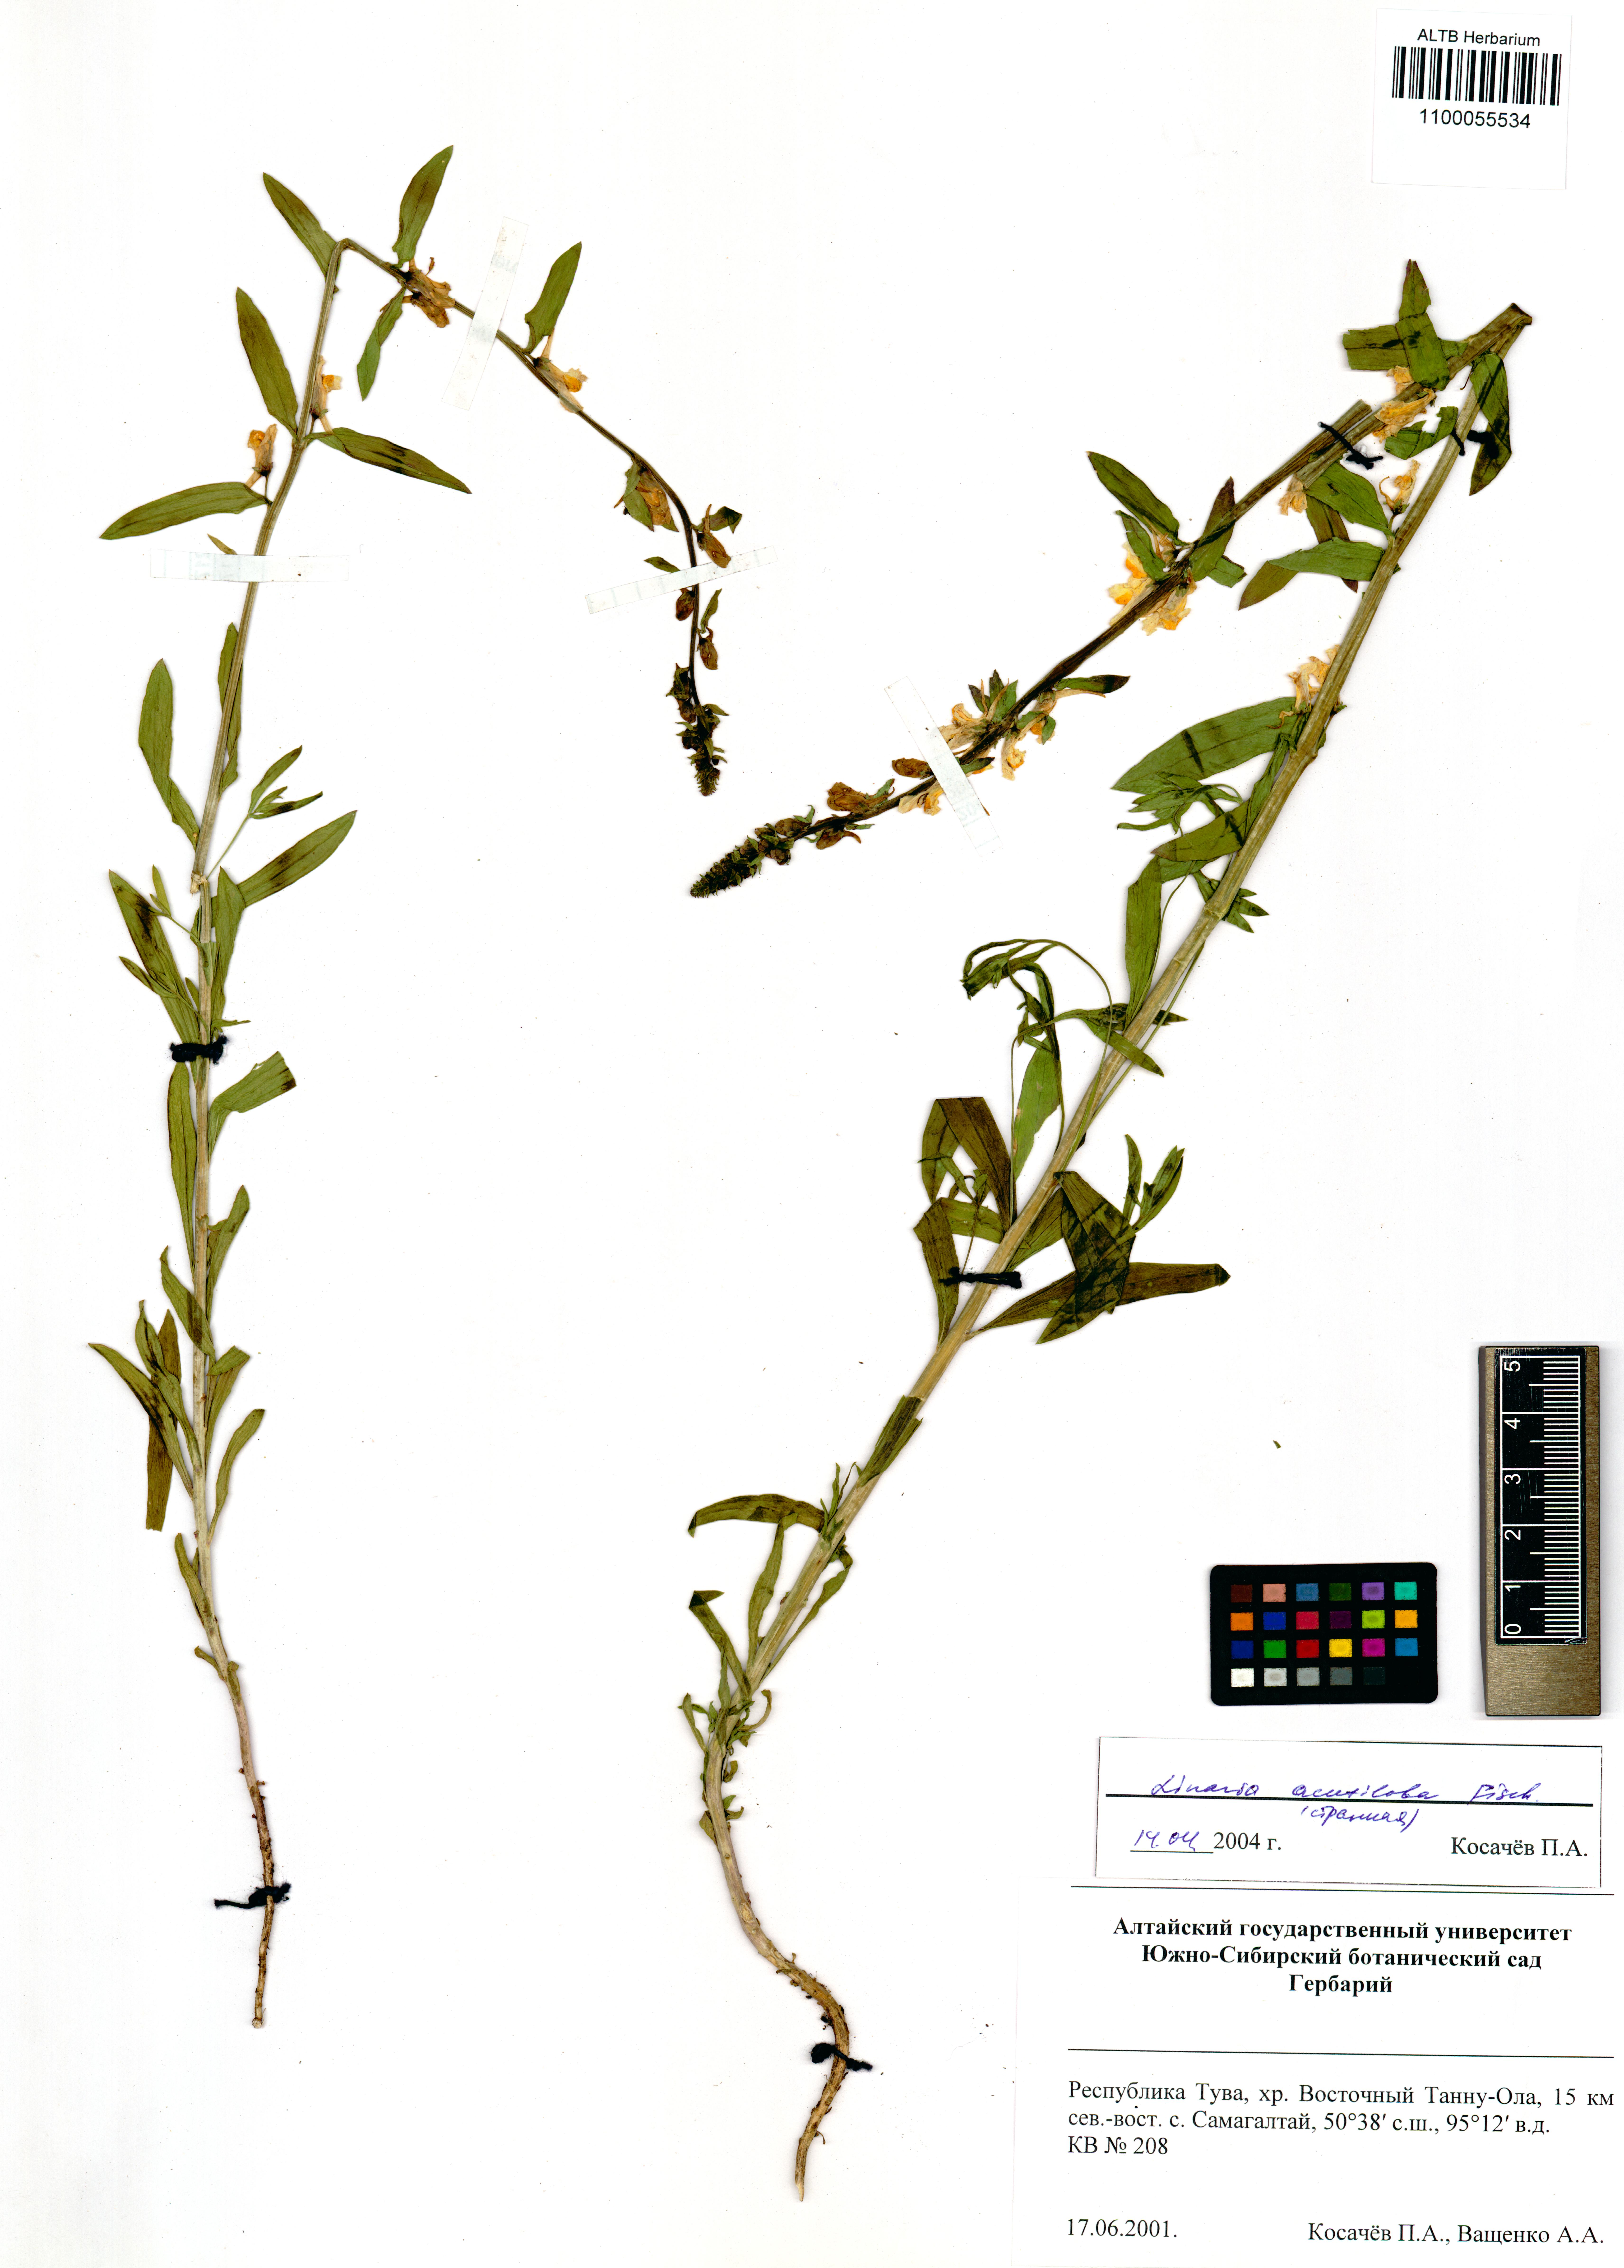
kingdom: Plantae
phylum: Tracheophyta
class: Magnoliopsida
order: Lamiales
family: Plantaginaceae
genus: Linaria
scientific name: Linaria acutiloba
